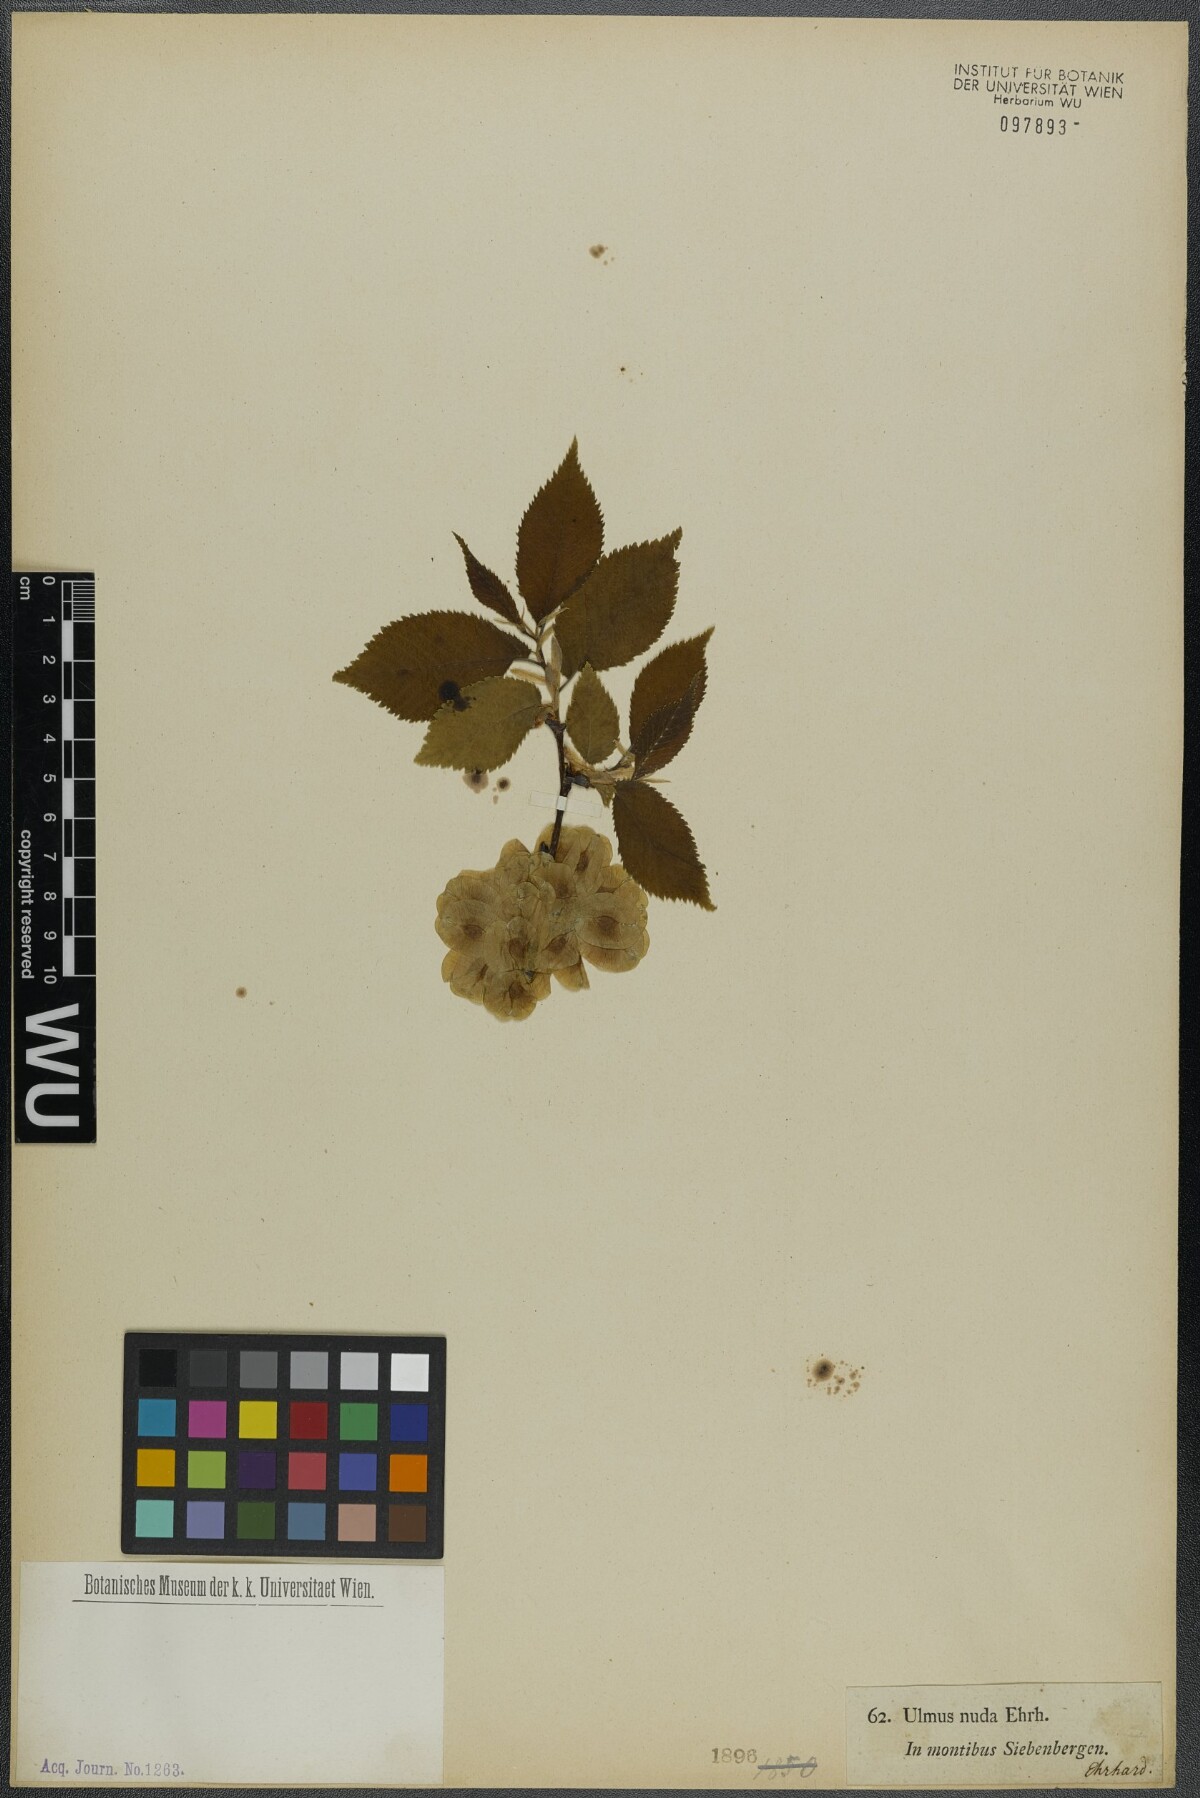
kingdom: Plantae
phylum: Tracheophyta
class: Magnoliopsida
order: Rosales
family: Ulmaceae
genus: Ulmus
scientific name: Ulmus glabra
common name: Wych elm
